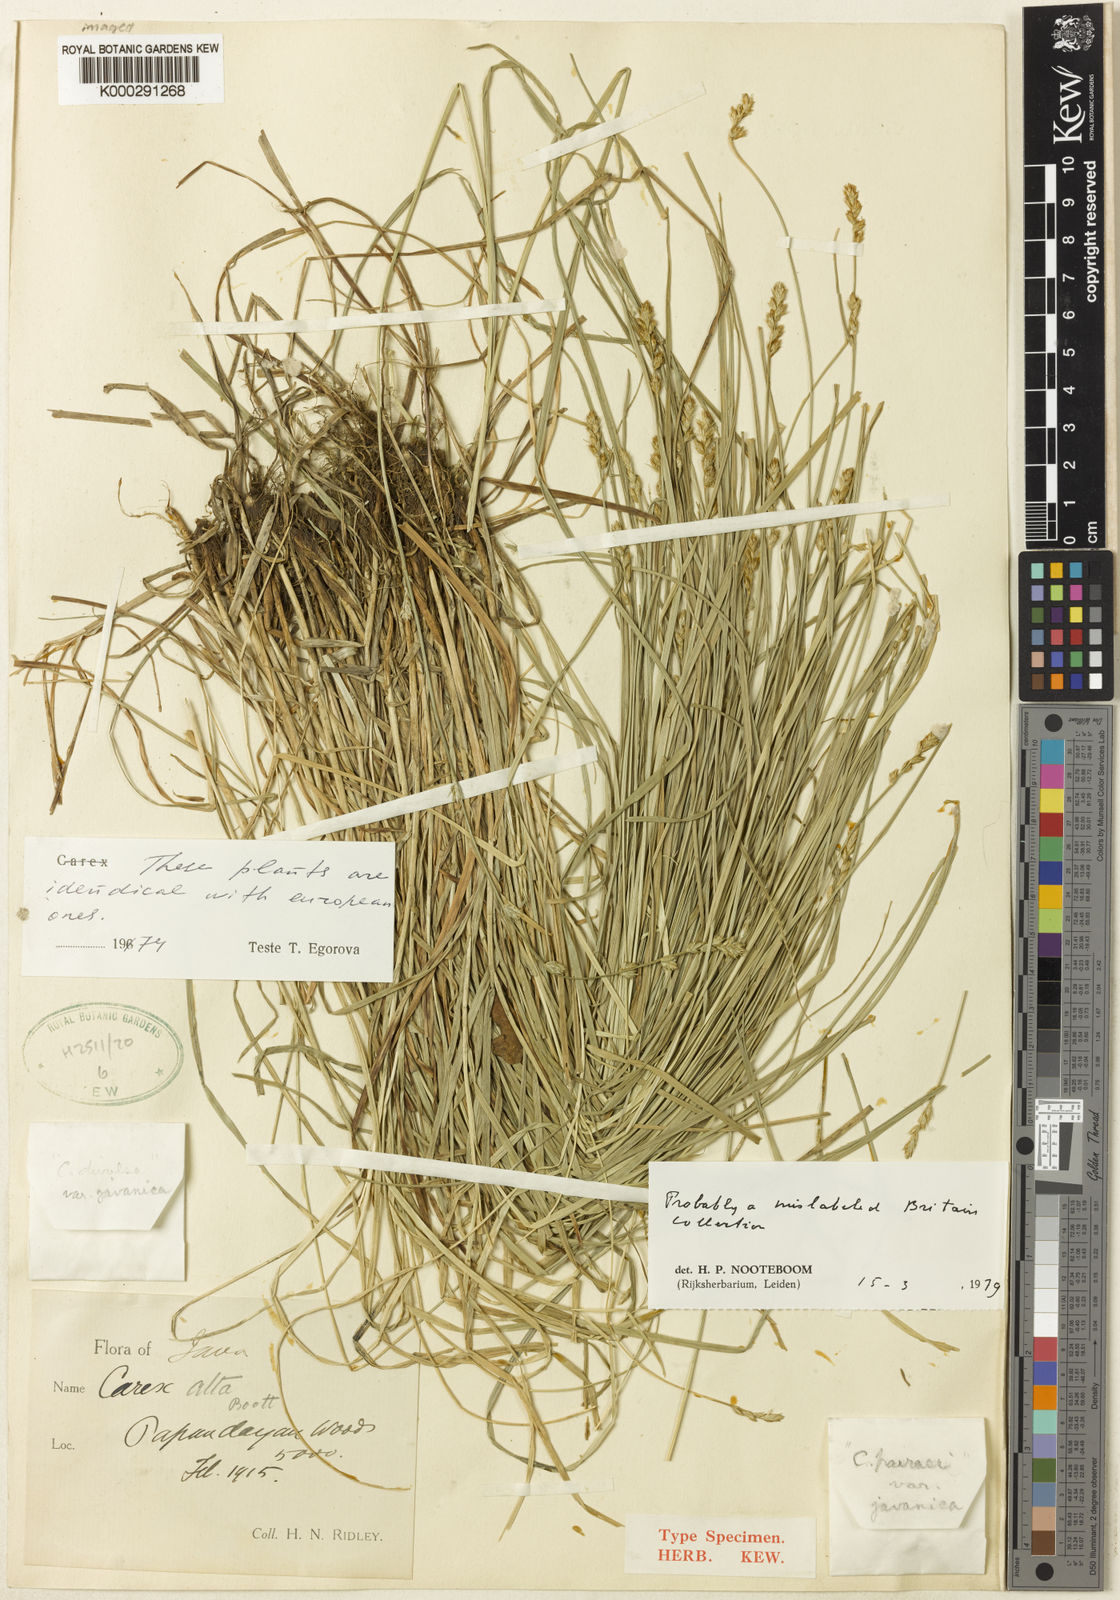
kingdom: Plantae
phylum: Tracheophyta
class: Liliopsida
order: Poales
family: Cyperaceae
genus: Carex
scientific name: Carex divulsa
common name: Grassland sedge
